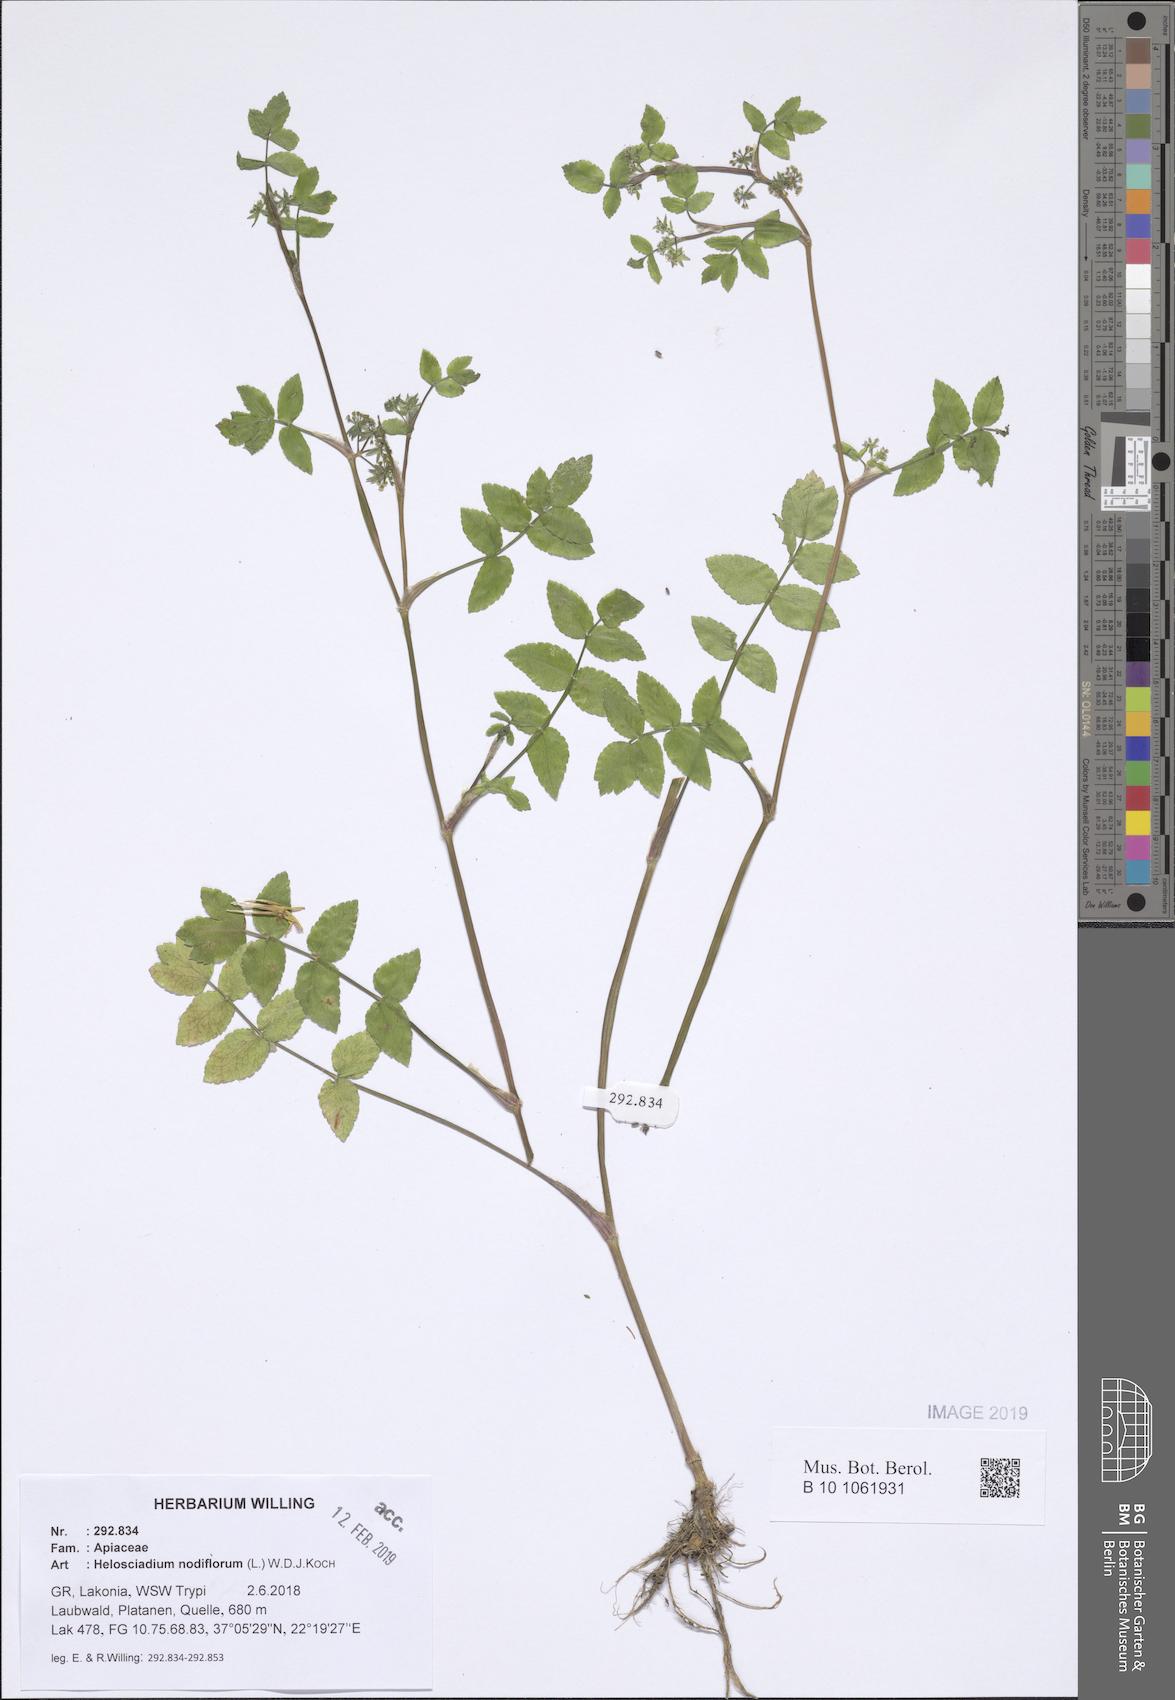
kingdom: Plantae
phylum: Tracheophyta
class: Magnoliopsida
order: Apiales
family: Apiaceae
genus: Helosciadium
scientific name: Helosciadium nodiflorum
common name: Fool's-watercress
